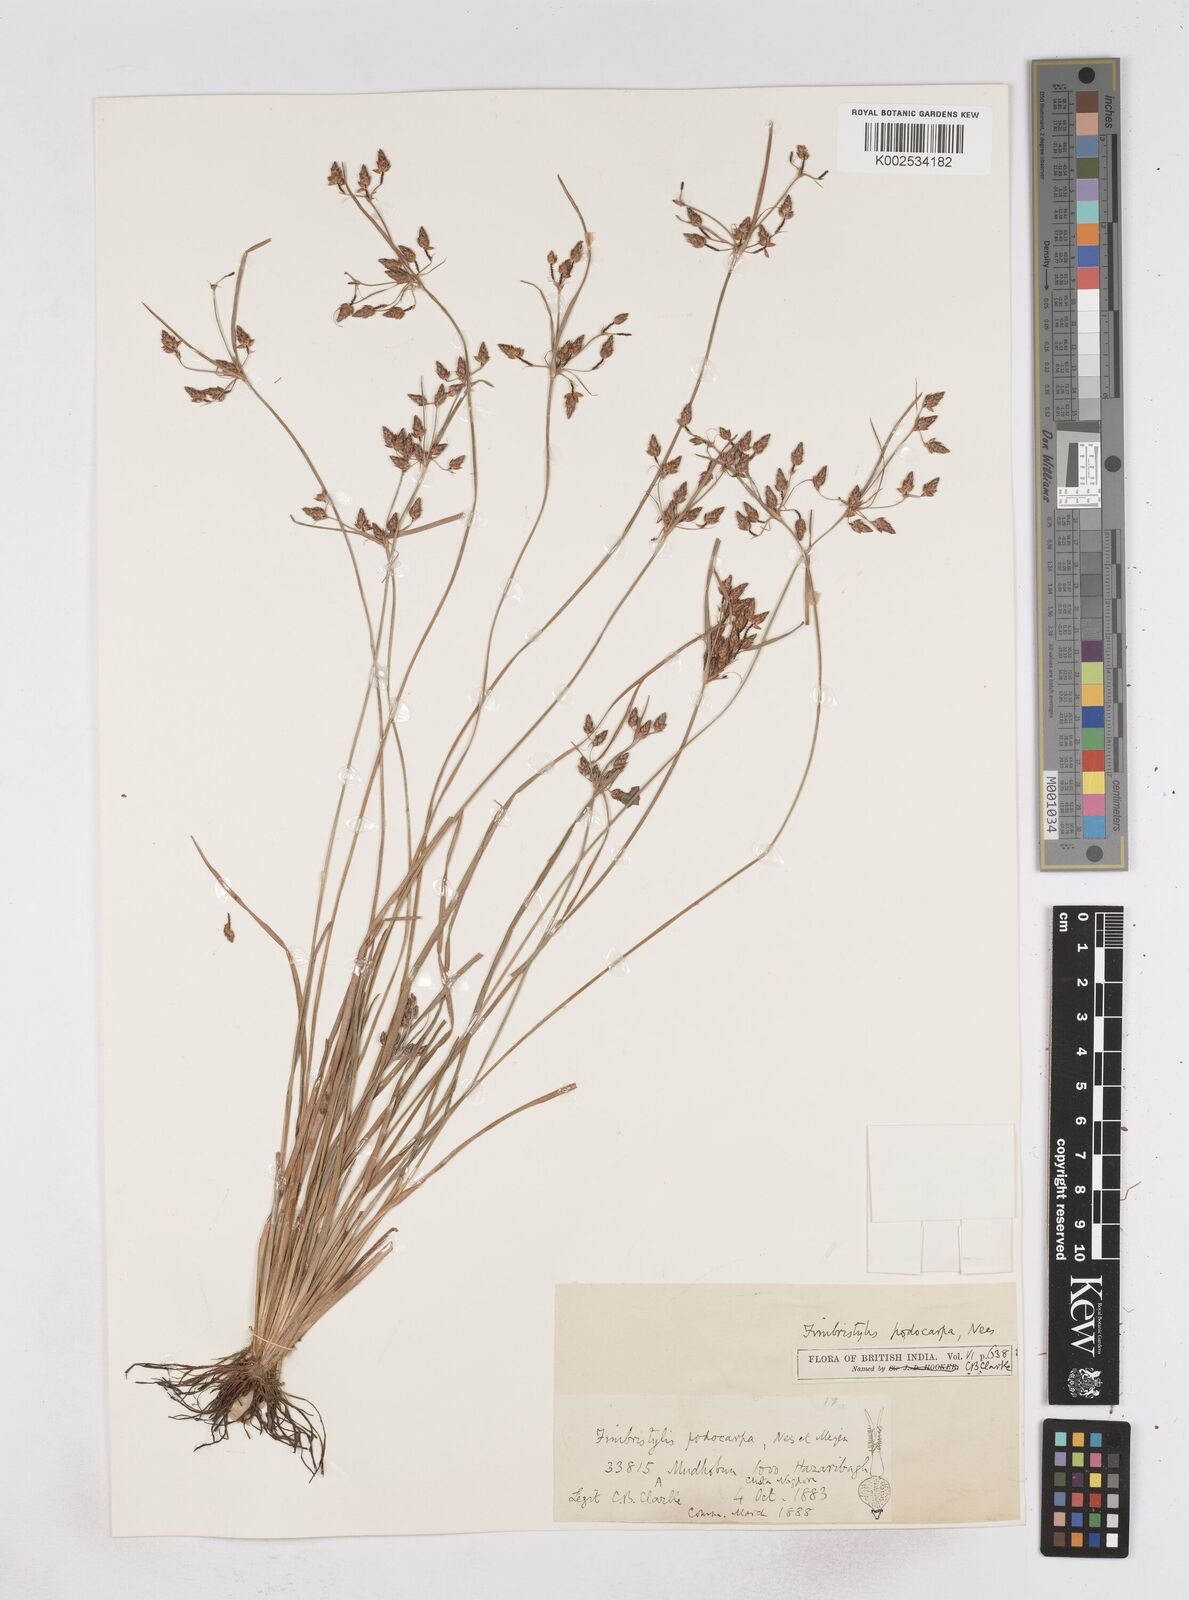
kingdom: Plantae
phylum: Tracheophyta
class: Liliopsida
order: Poales
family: Cyperaceae
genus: Fimbristylis
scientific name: Fimbristylis dichotoma
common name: Forked fimbry
